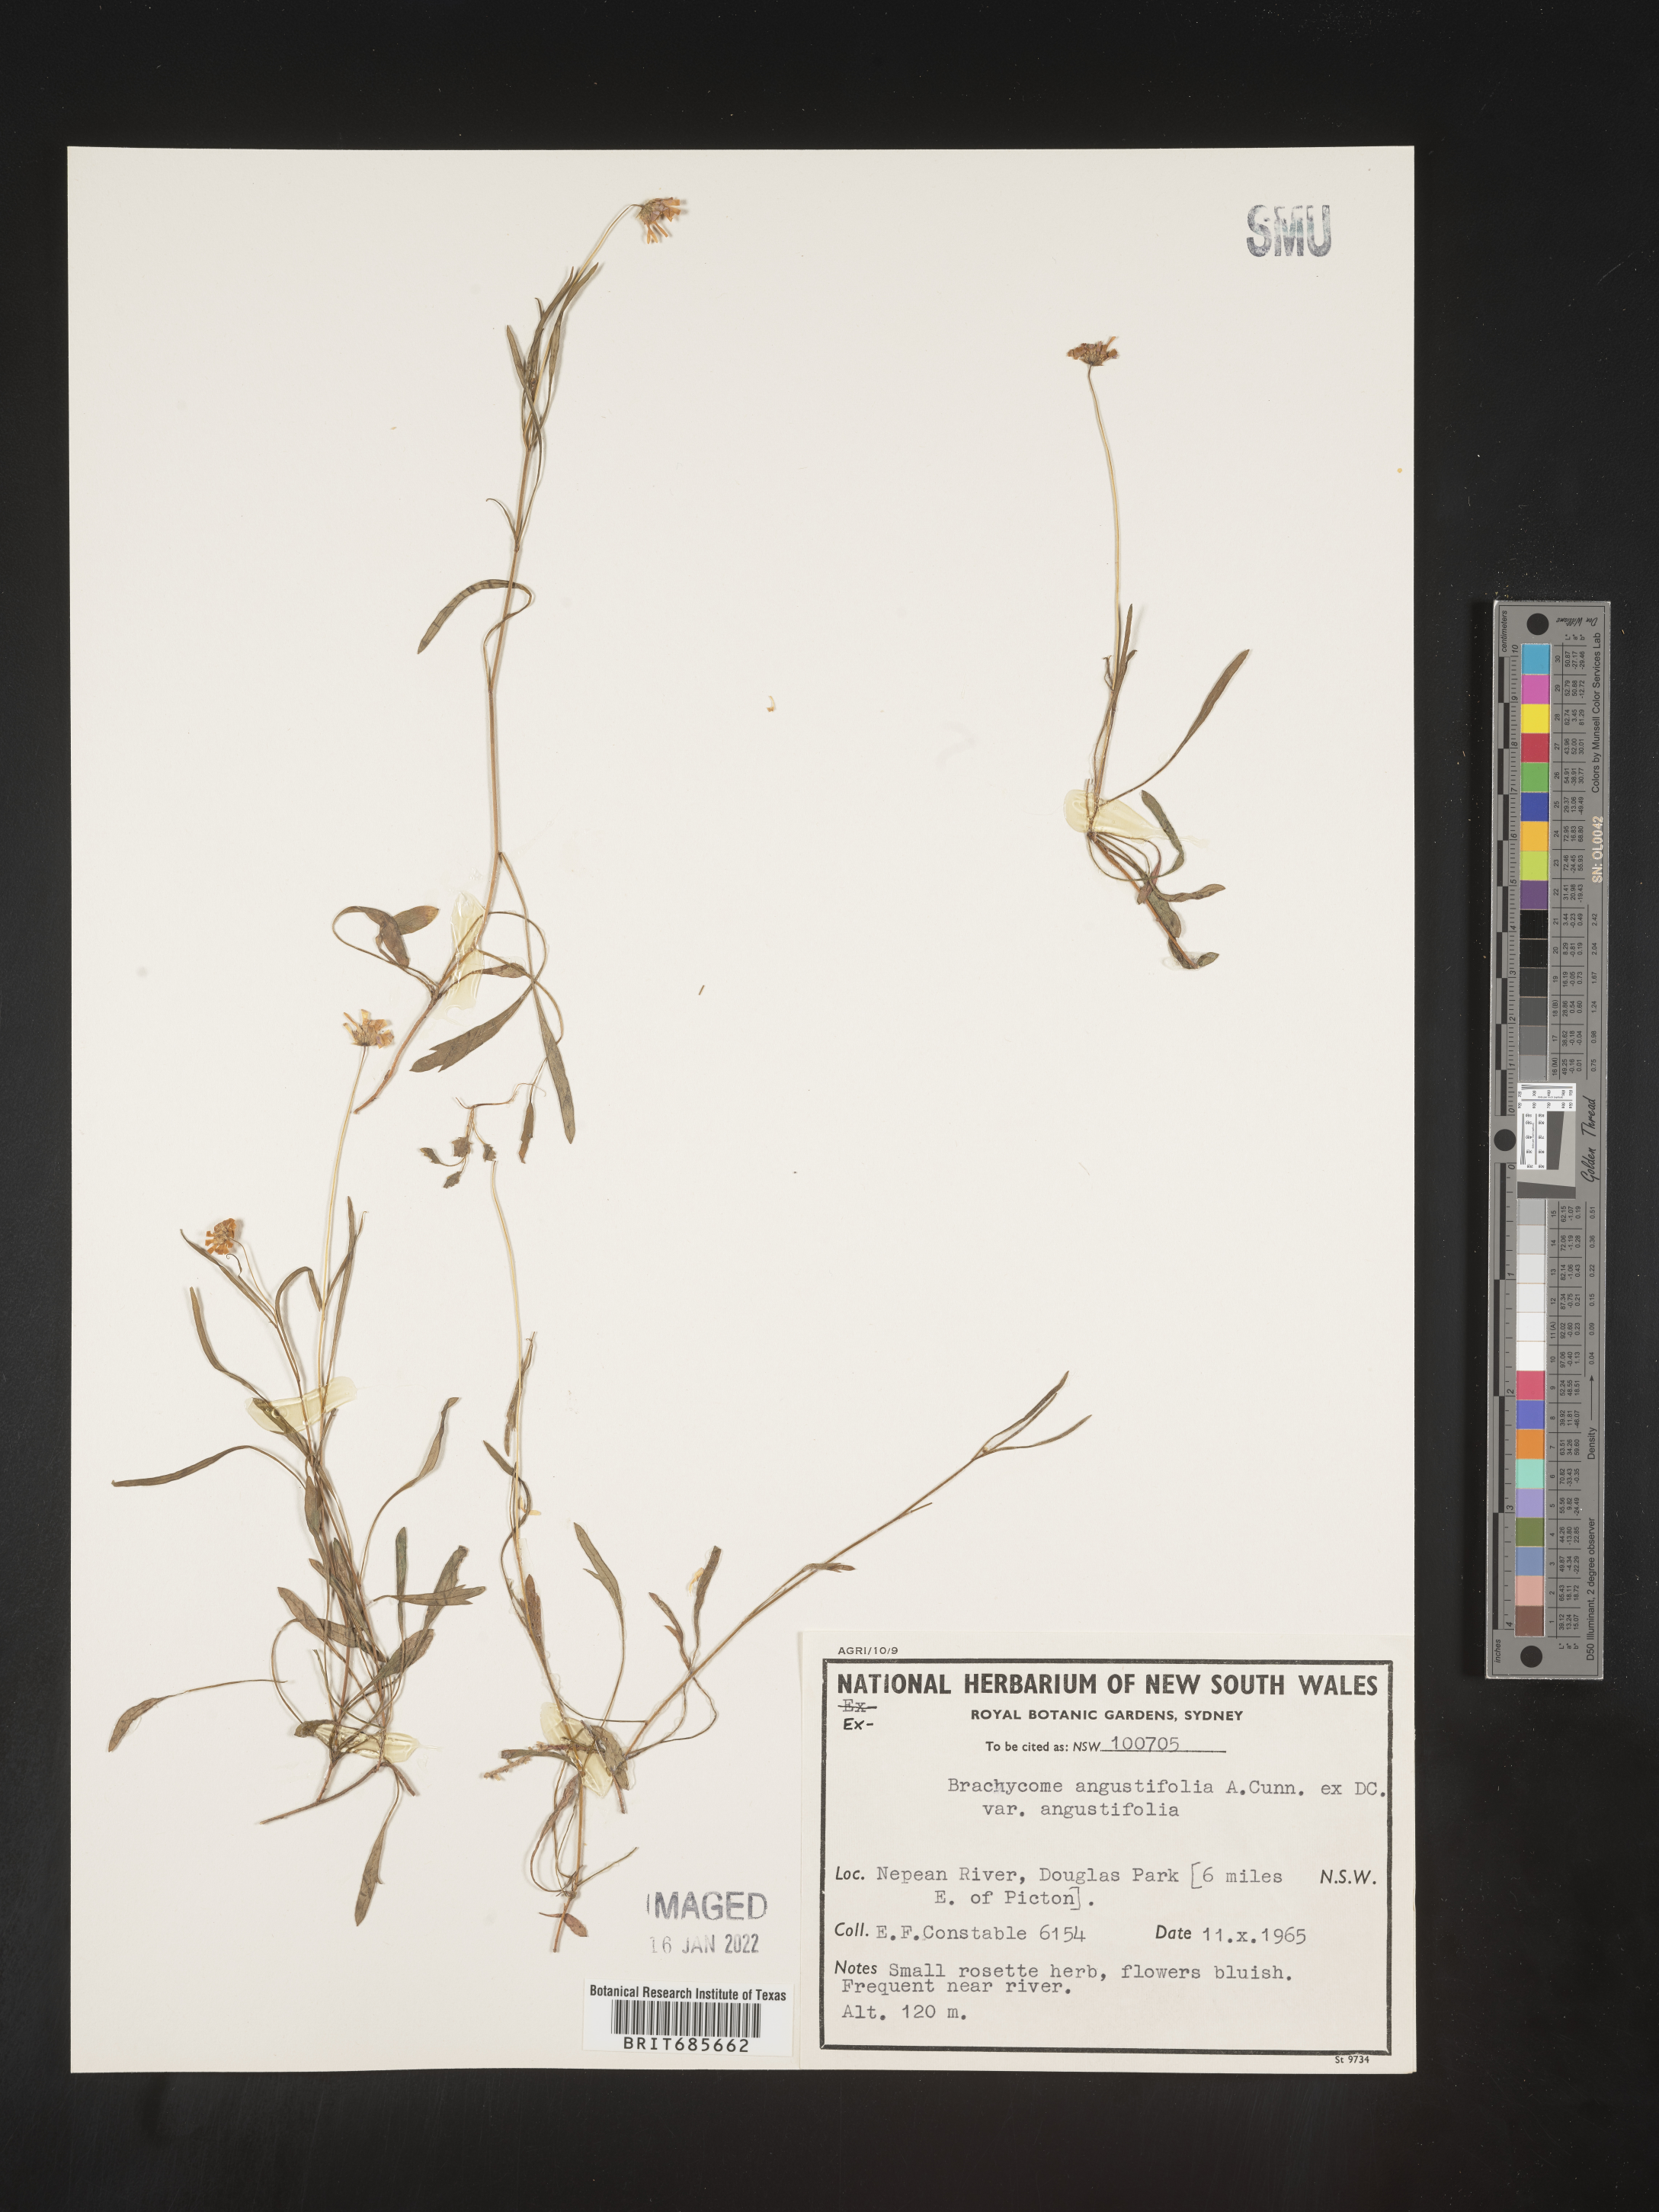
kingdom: Plantae
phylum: Tracheophyta
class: Magnoliopsida
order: Asterales
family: Asteraceae
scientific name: Asteraceae
